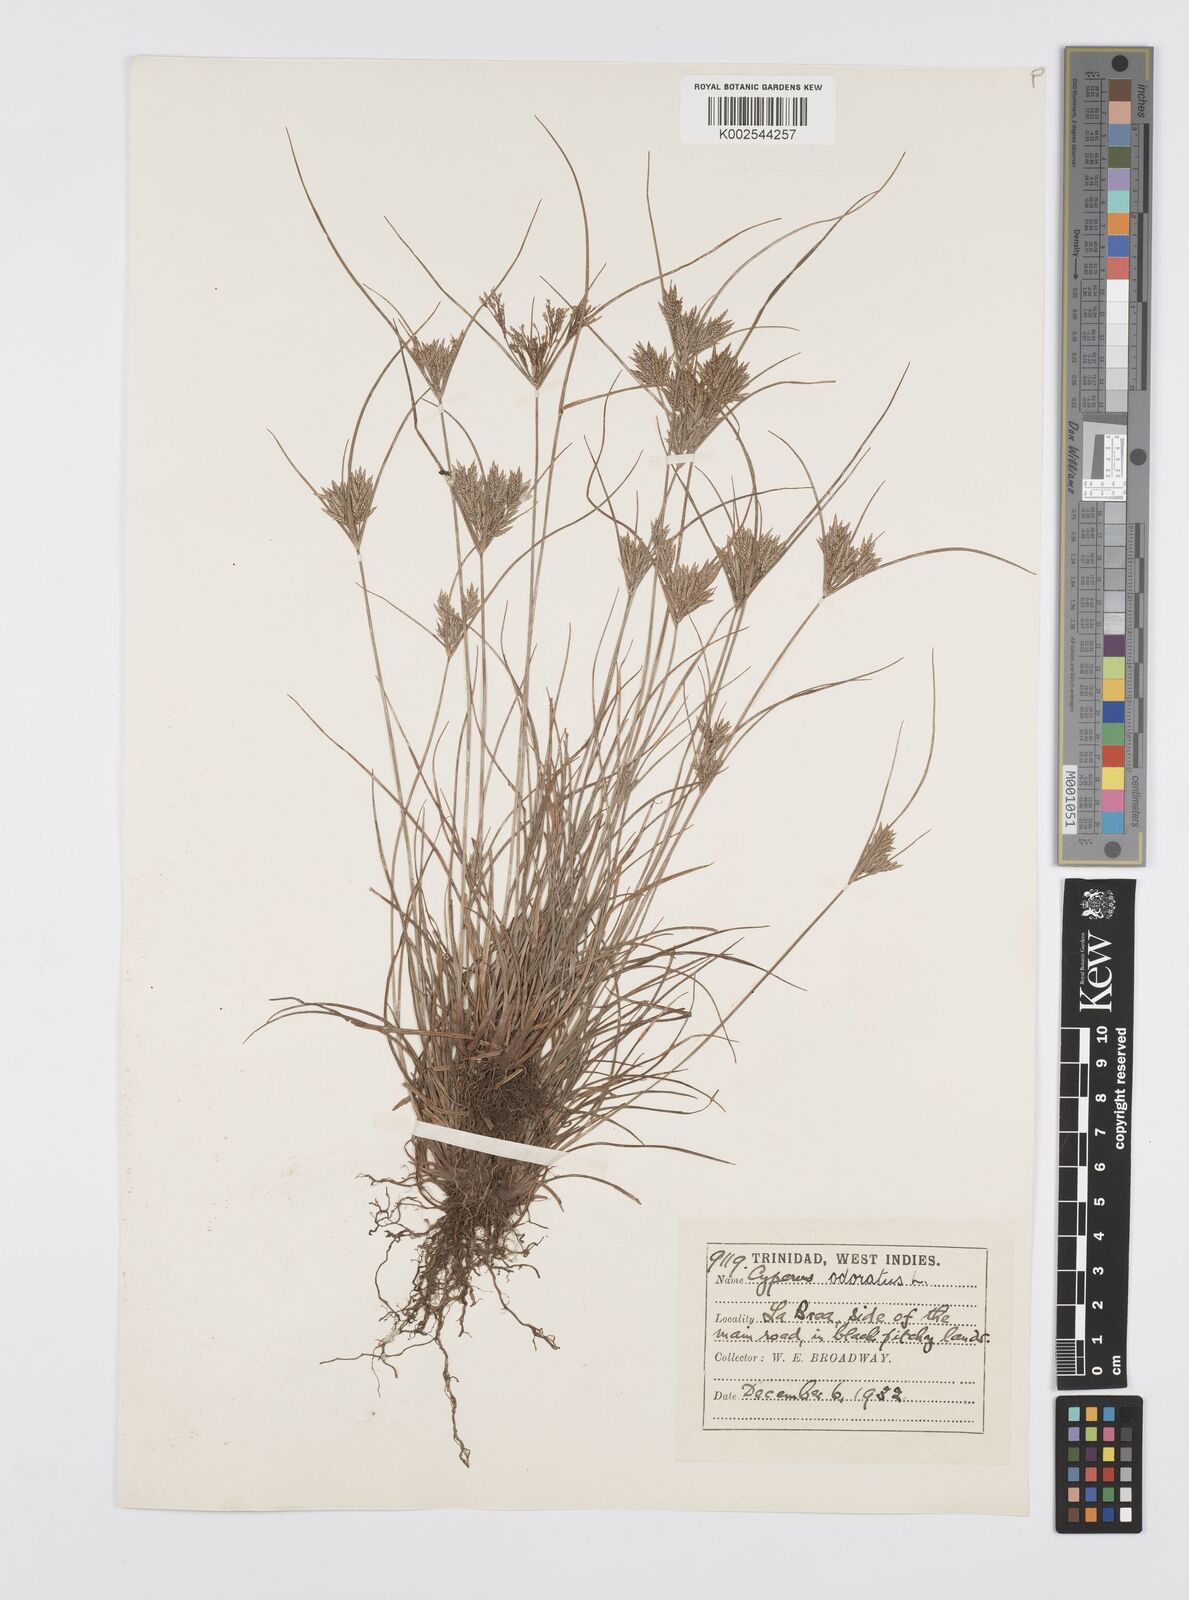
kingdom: Plantae
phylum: Tracheophyta
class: Liliopsida
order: Poales
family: Cyperaceae
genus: Cyperus
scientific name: Cyperus polystachyos
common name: Bunchy flat sedge
